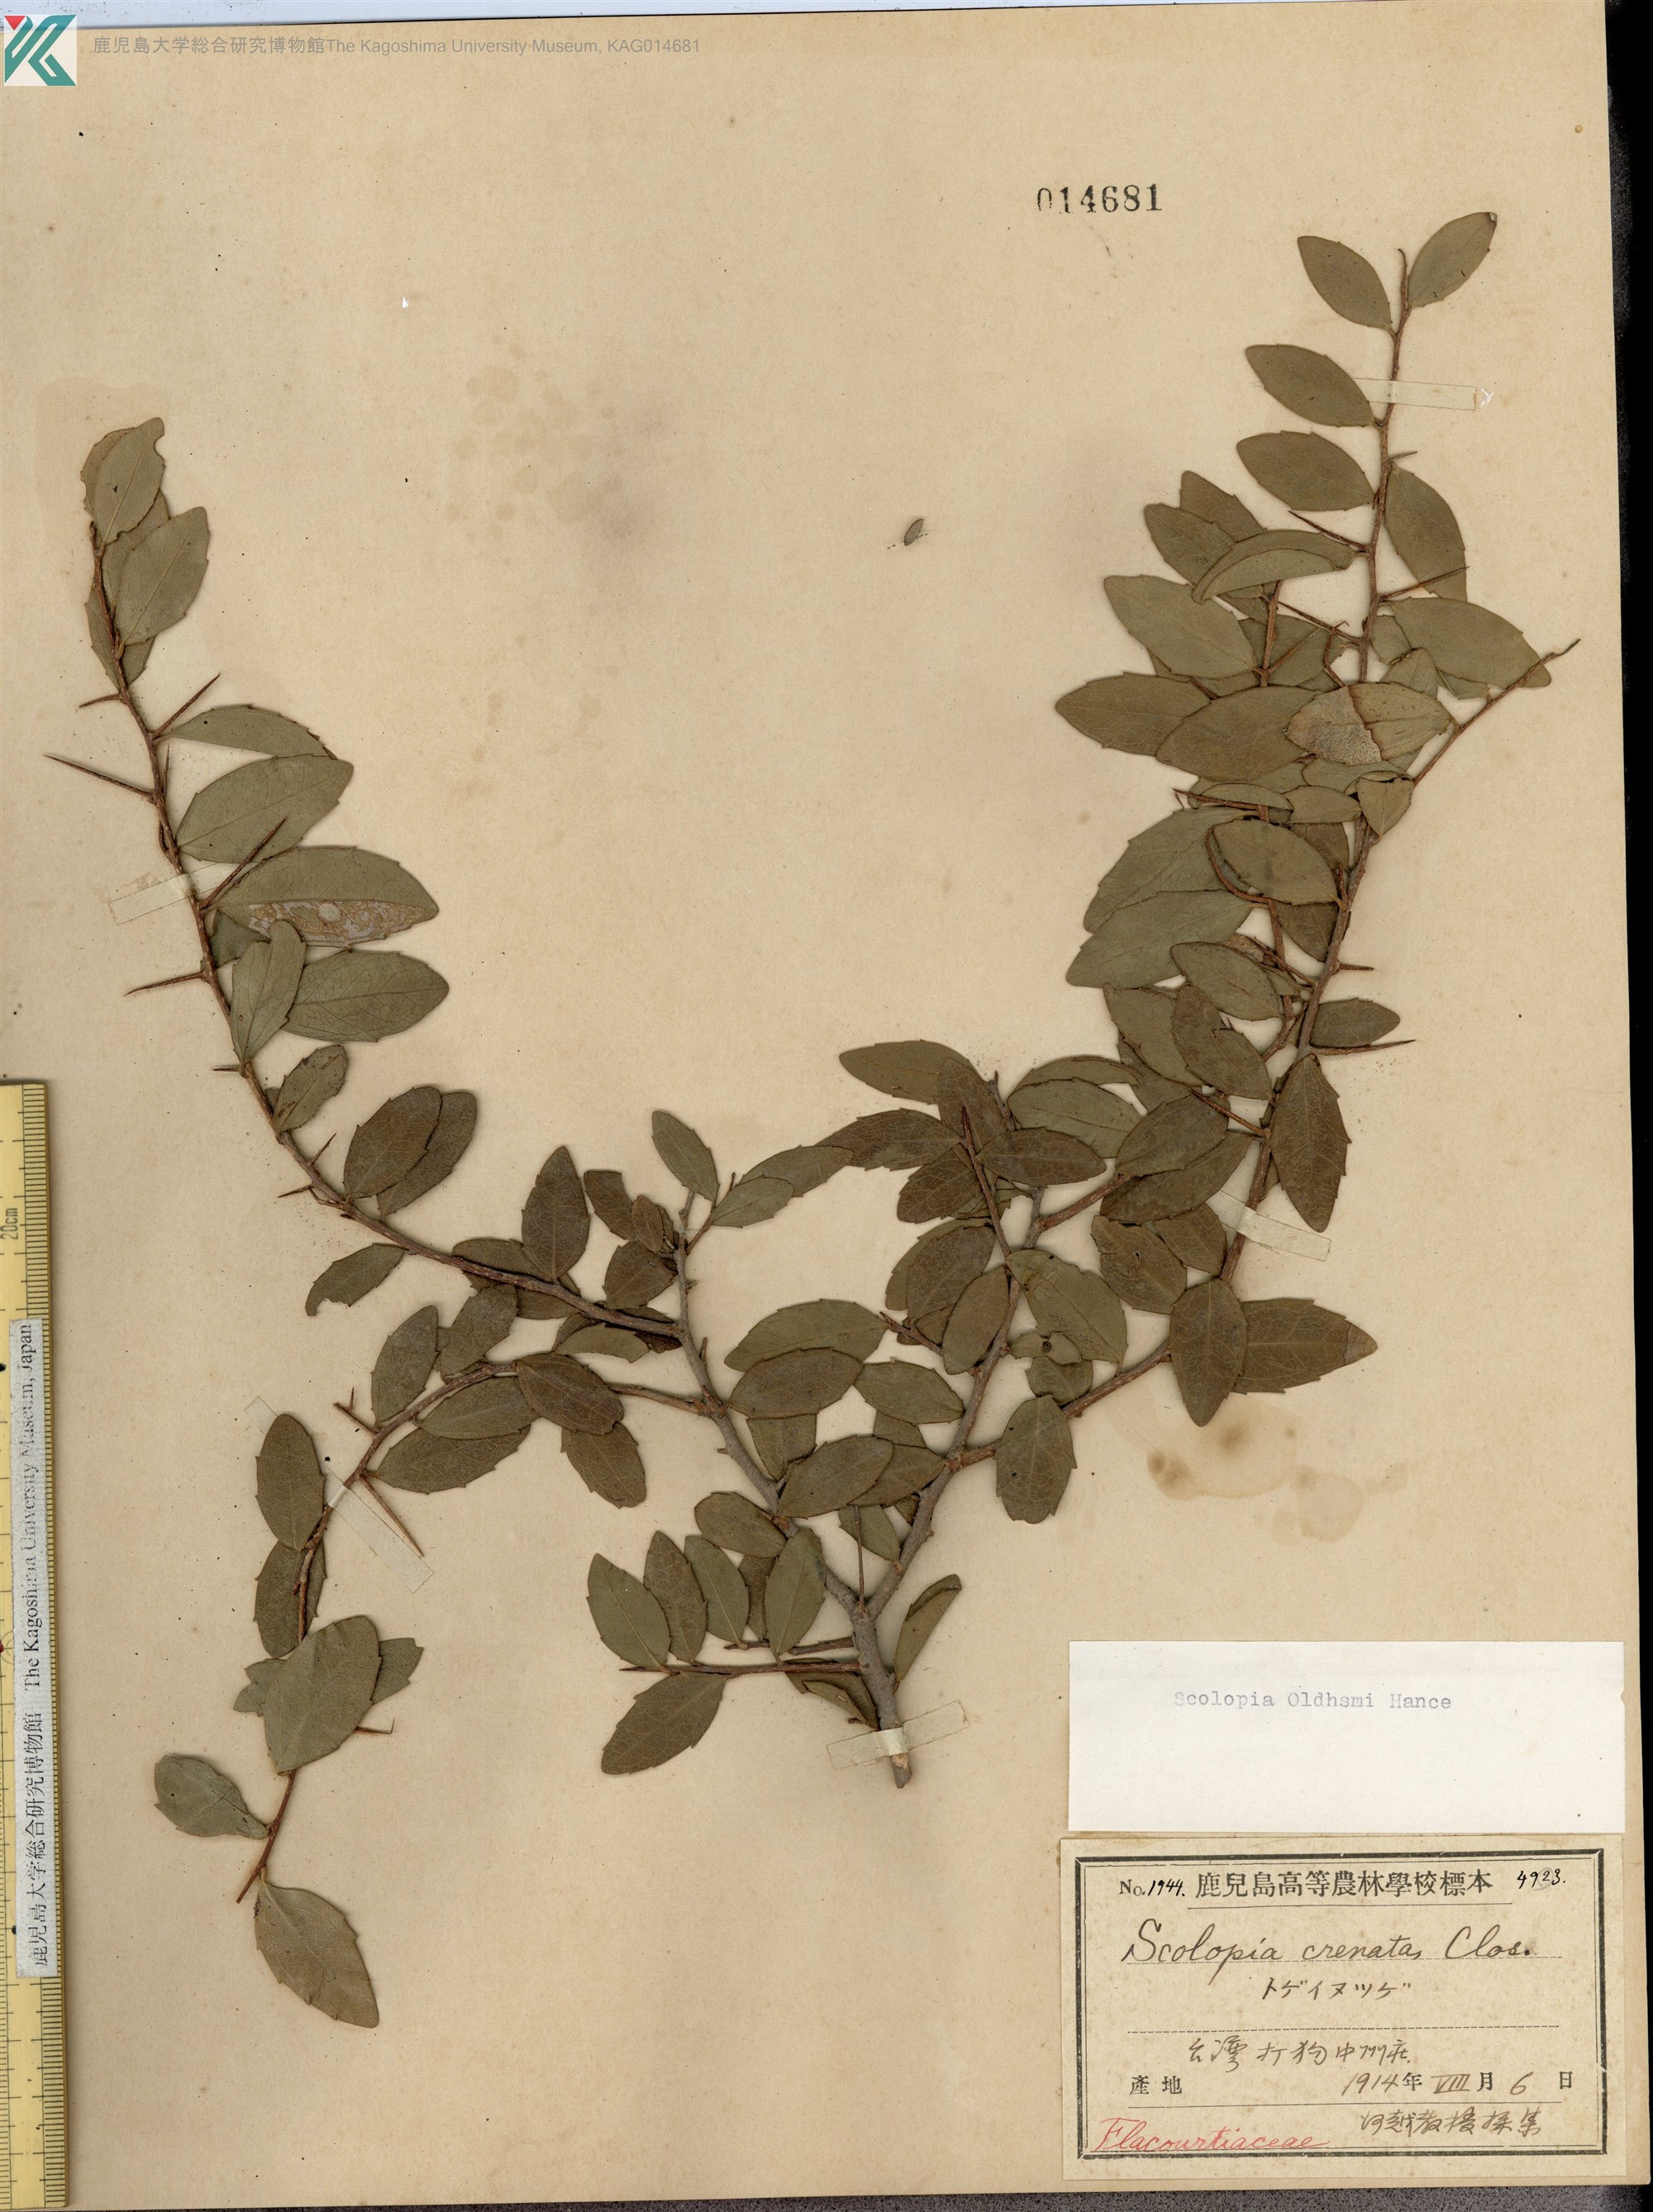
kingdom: Plantae
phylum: Tracheophyta
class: Magnoliopsida
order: Malpighiales
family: Salicaceae
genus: Scolopia
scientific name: Scolopia oldhamii
